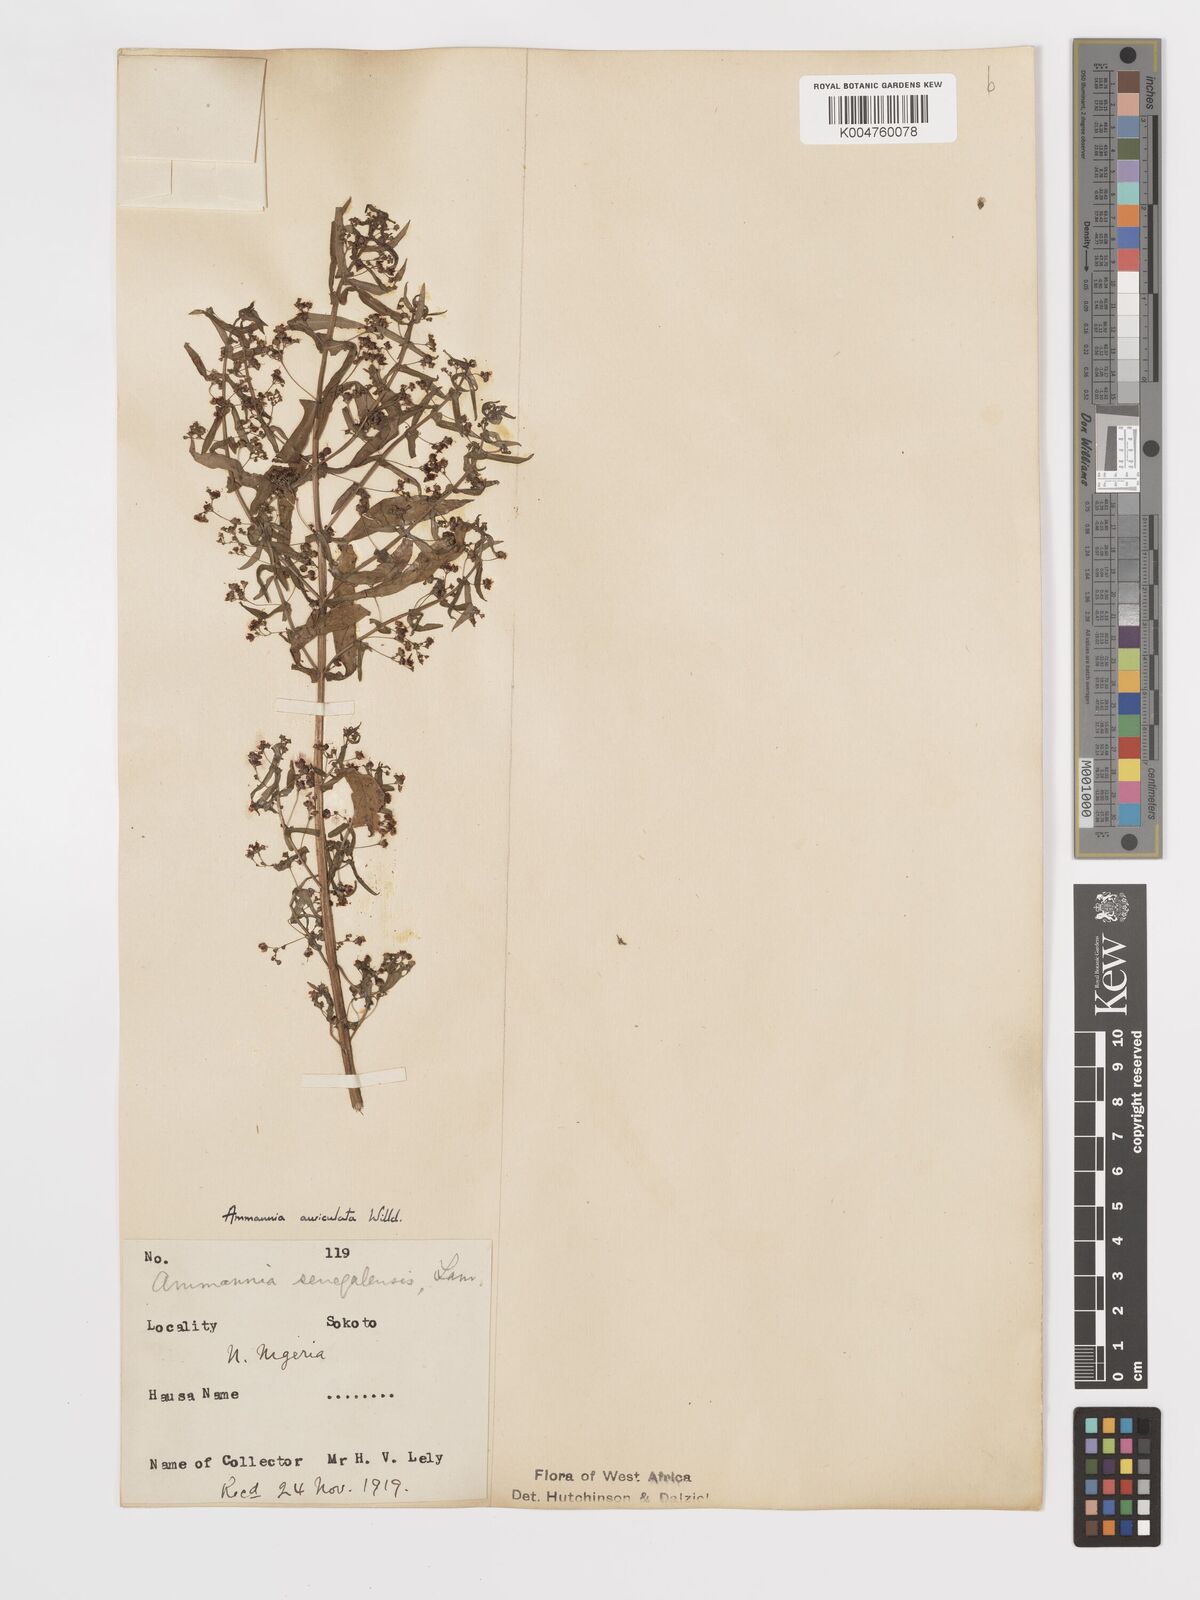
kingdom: Plantae
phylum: Tracheophyta
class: Magnoliopsida
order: Myrtales
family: Lythraceae
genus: Ammannia
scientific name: Ammannia auriculata
